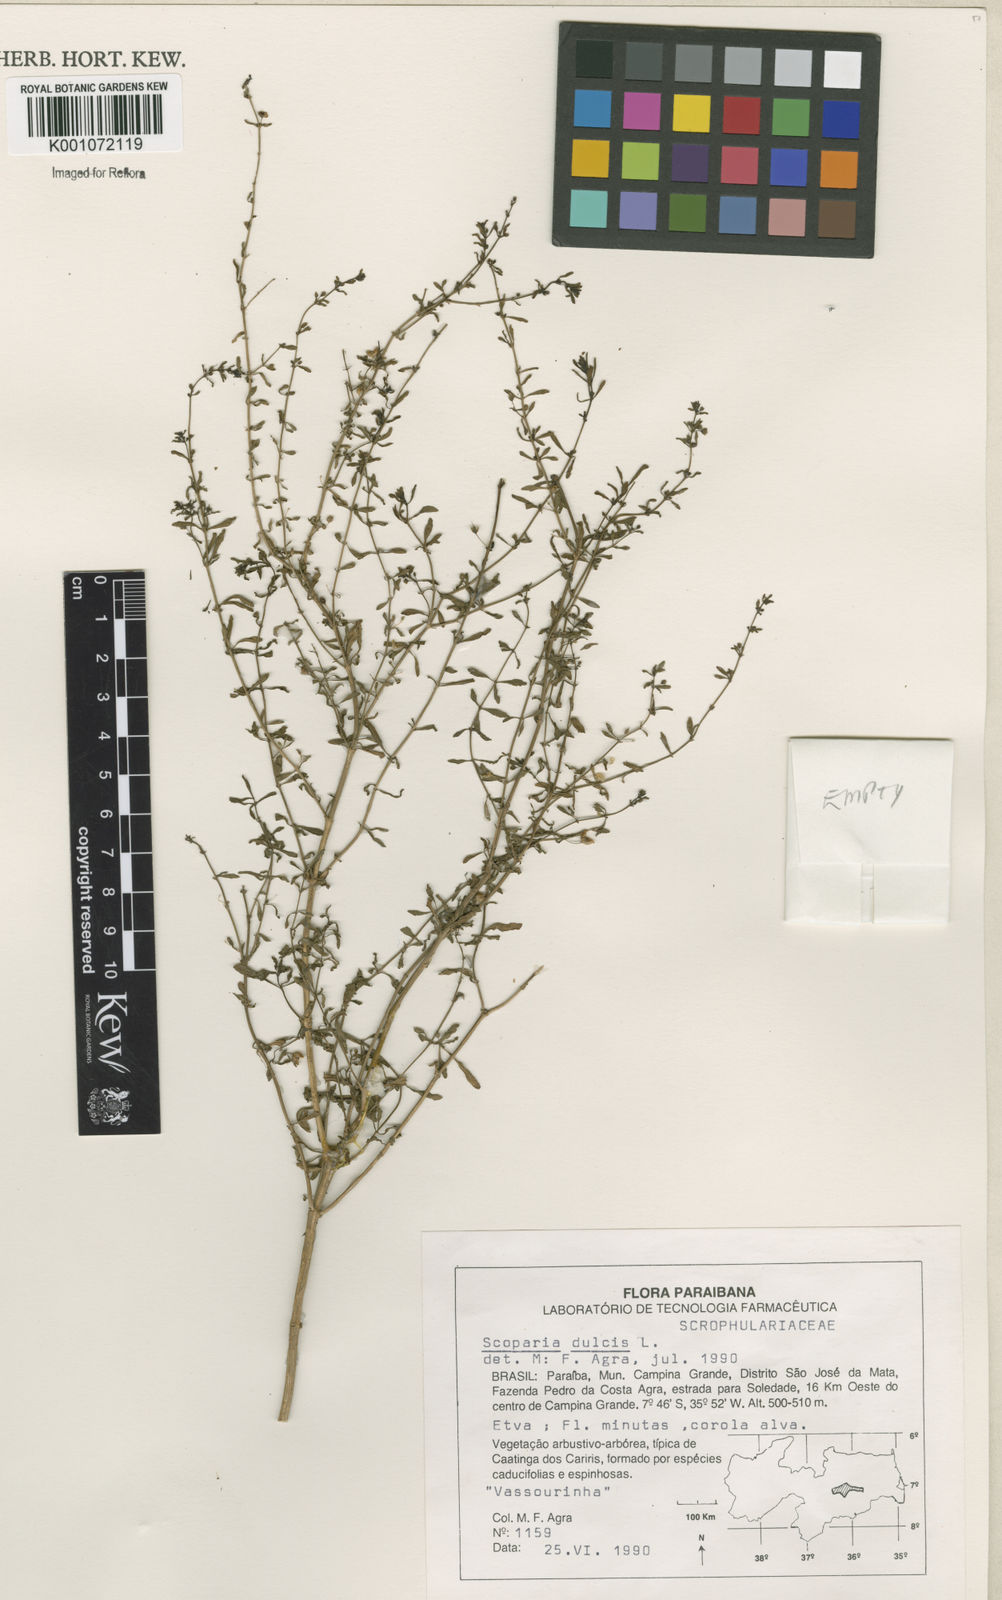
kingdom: Plantae
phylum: Tracheophyta
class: Magnoliopsida
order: Lamiales
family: Plantaginaceae
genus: Scoparia
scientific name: Scoparia dulcis
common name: Scoparia-weed
